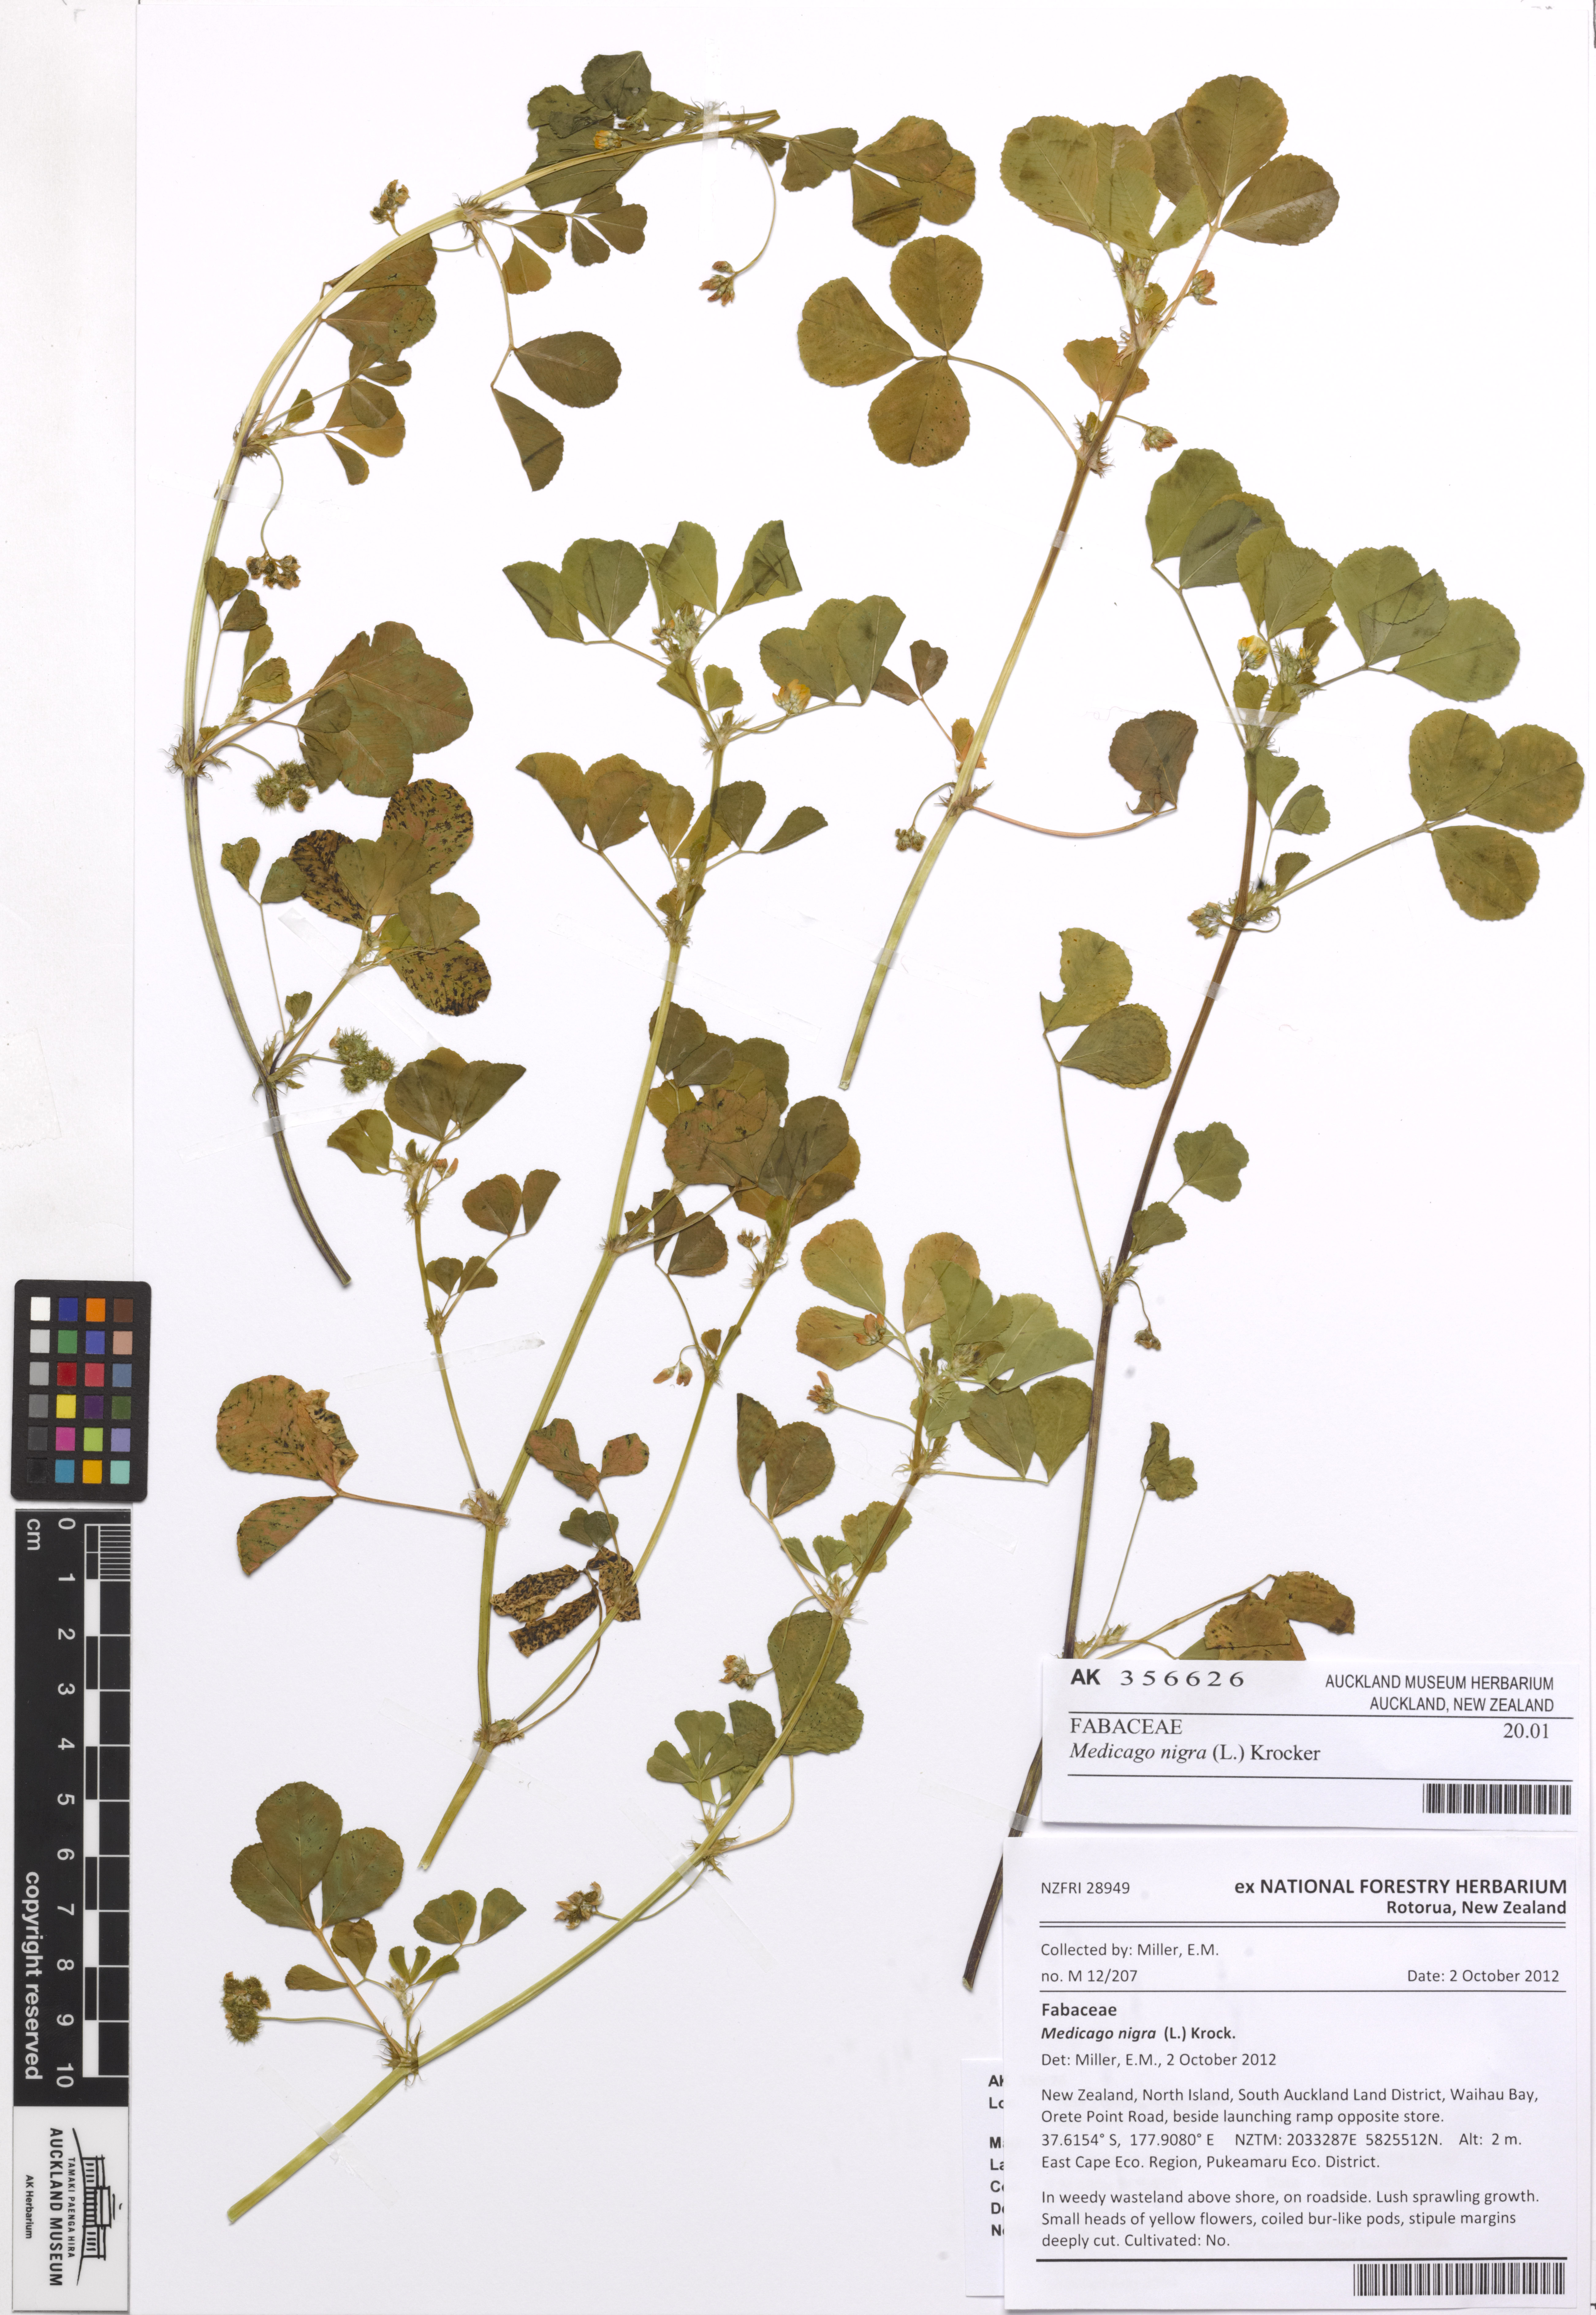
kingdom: Plantae
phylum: Tracheophyta
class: Magnoliopsida
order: Fabales
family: Fabaceae
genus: Medicago
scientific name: Medicago polymorpha
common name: Burclover
